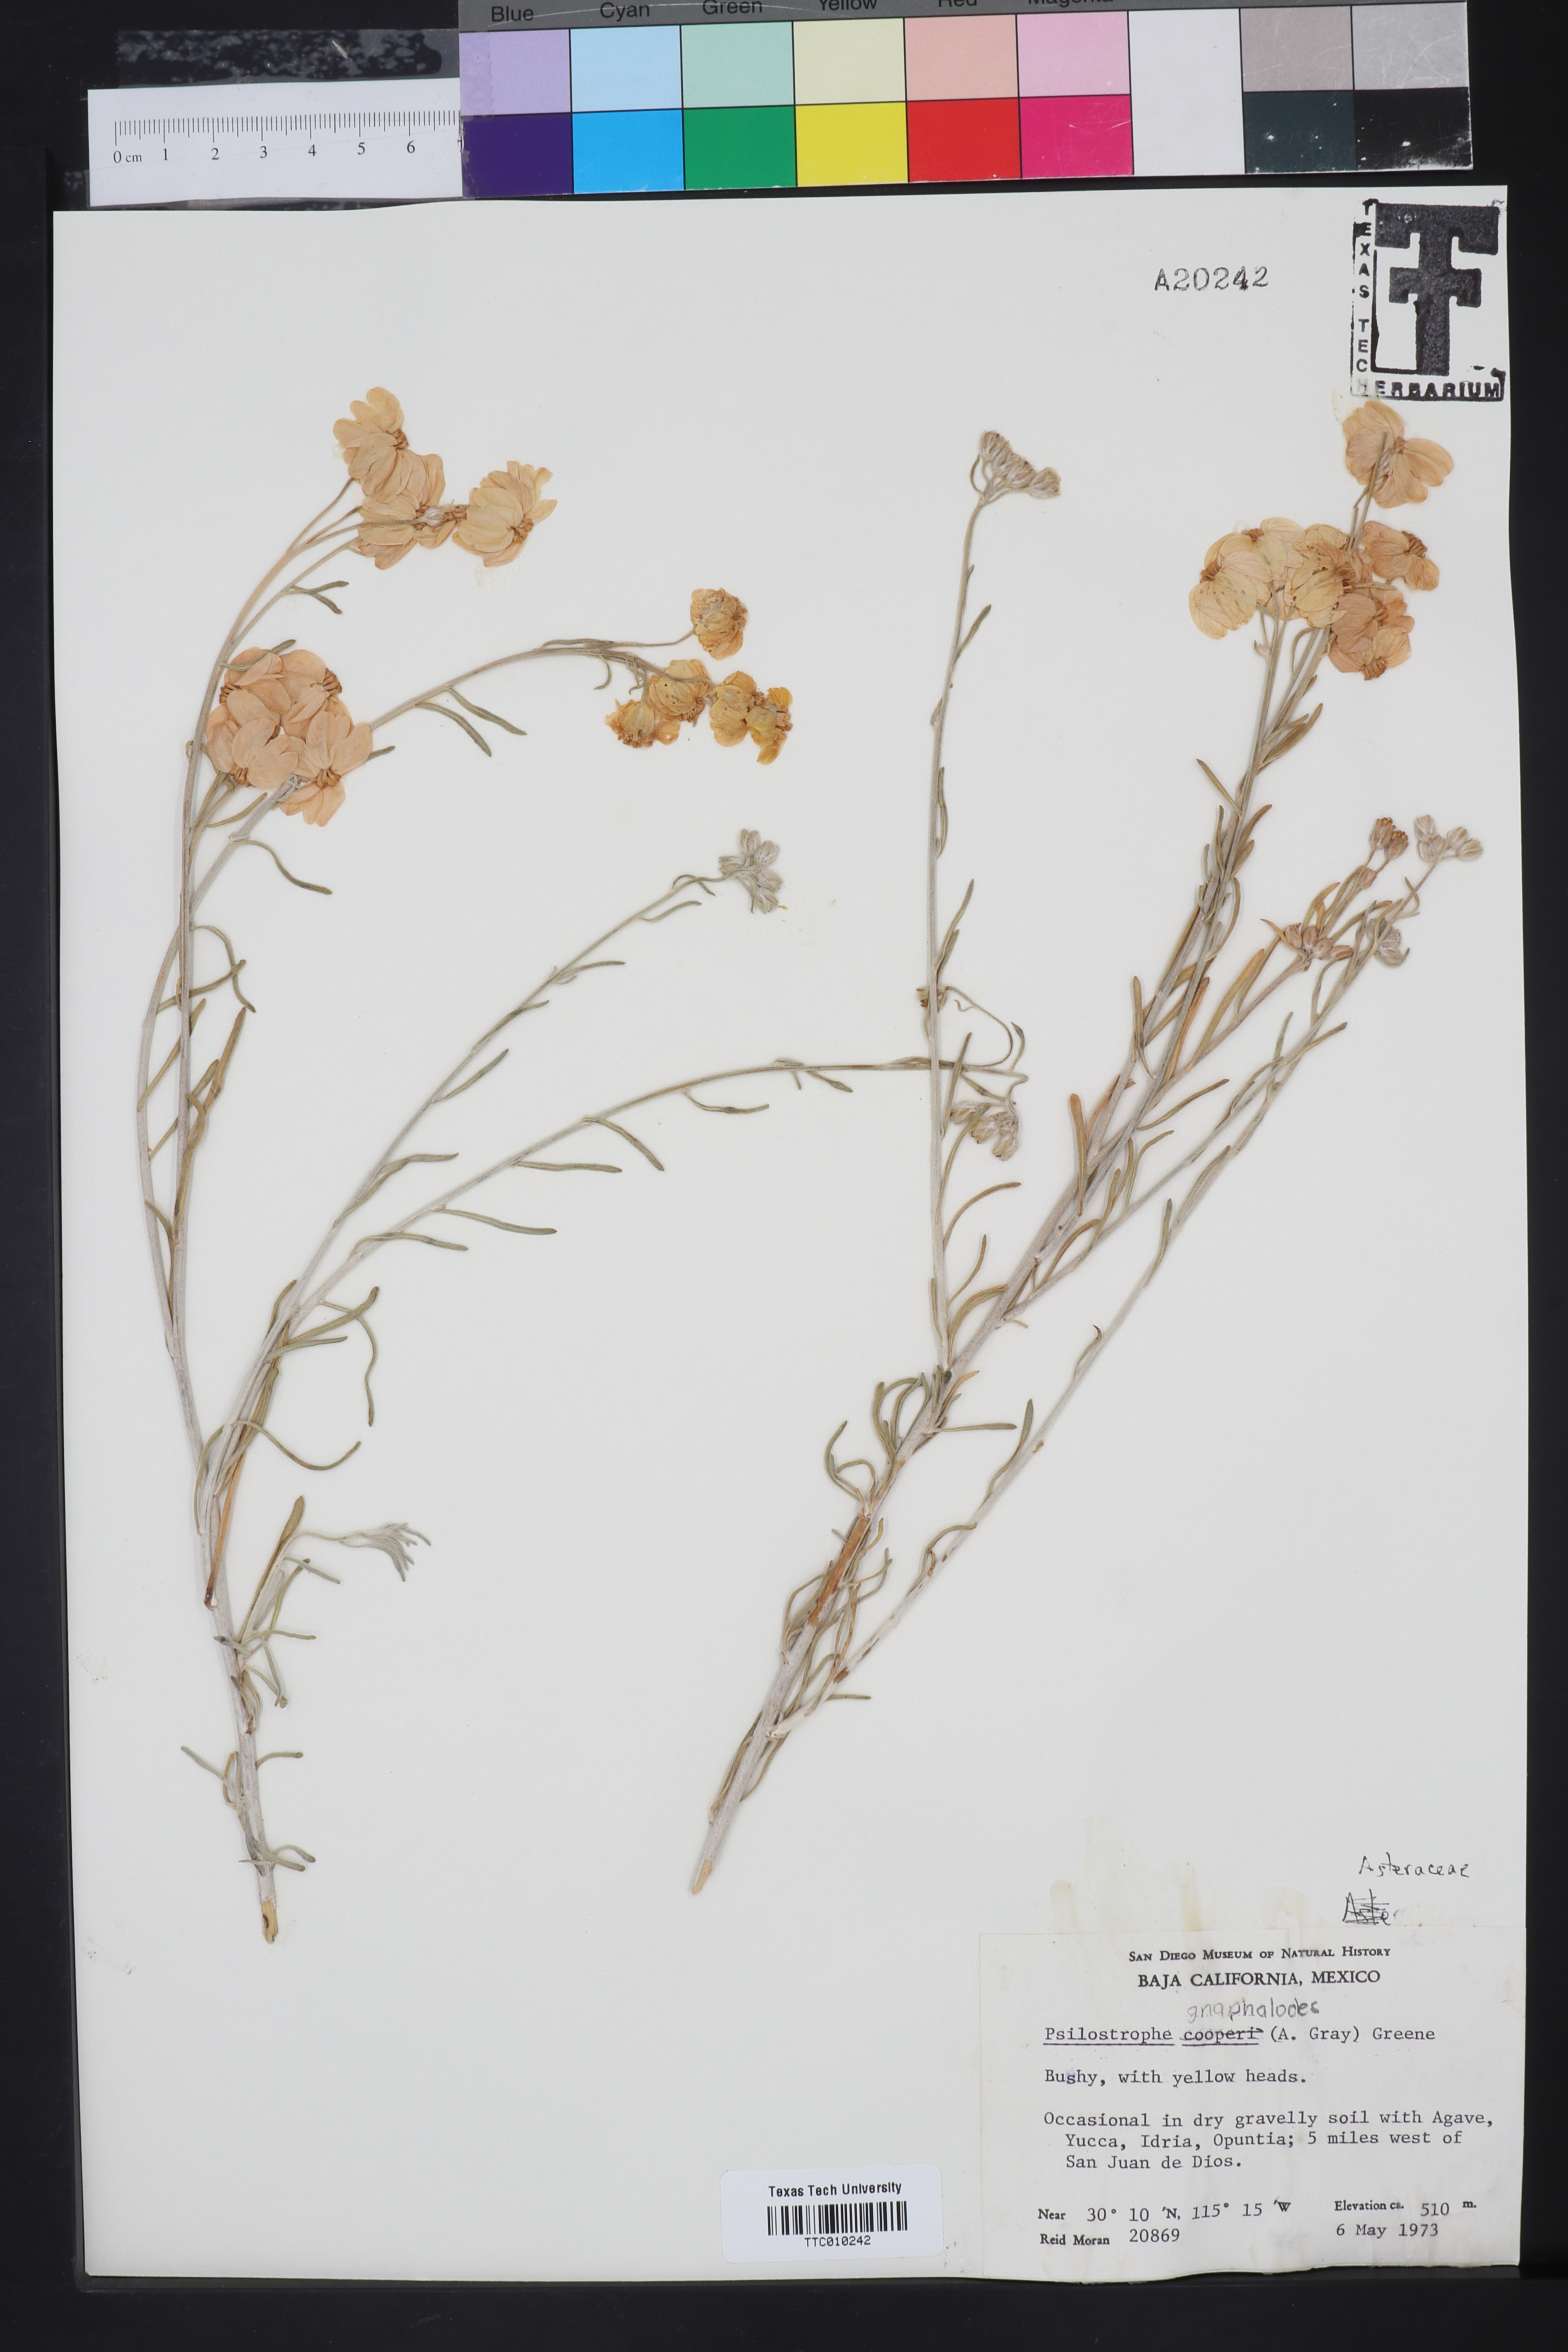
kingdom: Plantae
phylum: Tracheophyta
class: Magnoliopsida
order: Asterales
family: Asteraceae
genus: Psilostrophe
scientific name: Psilostrophe cooperi
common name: White-stem paper-flower
